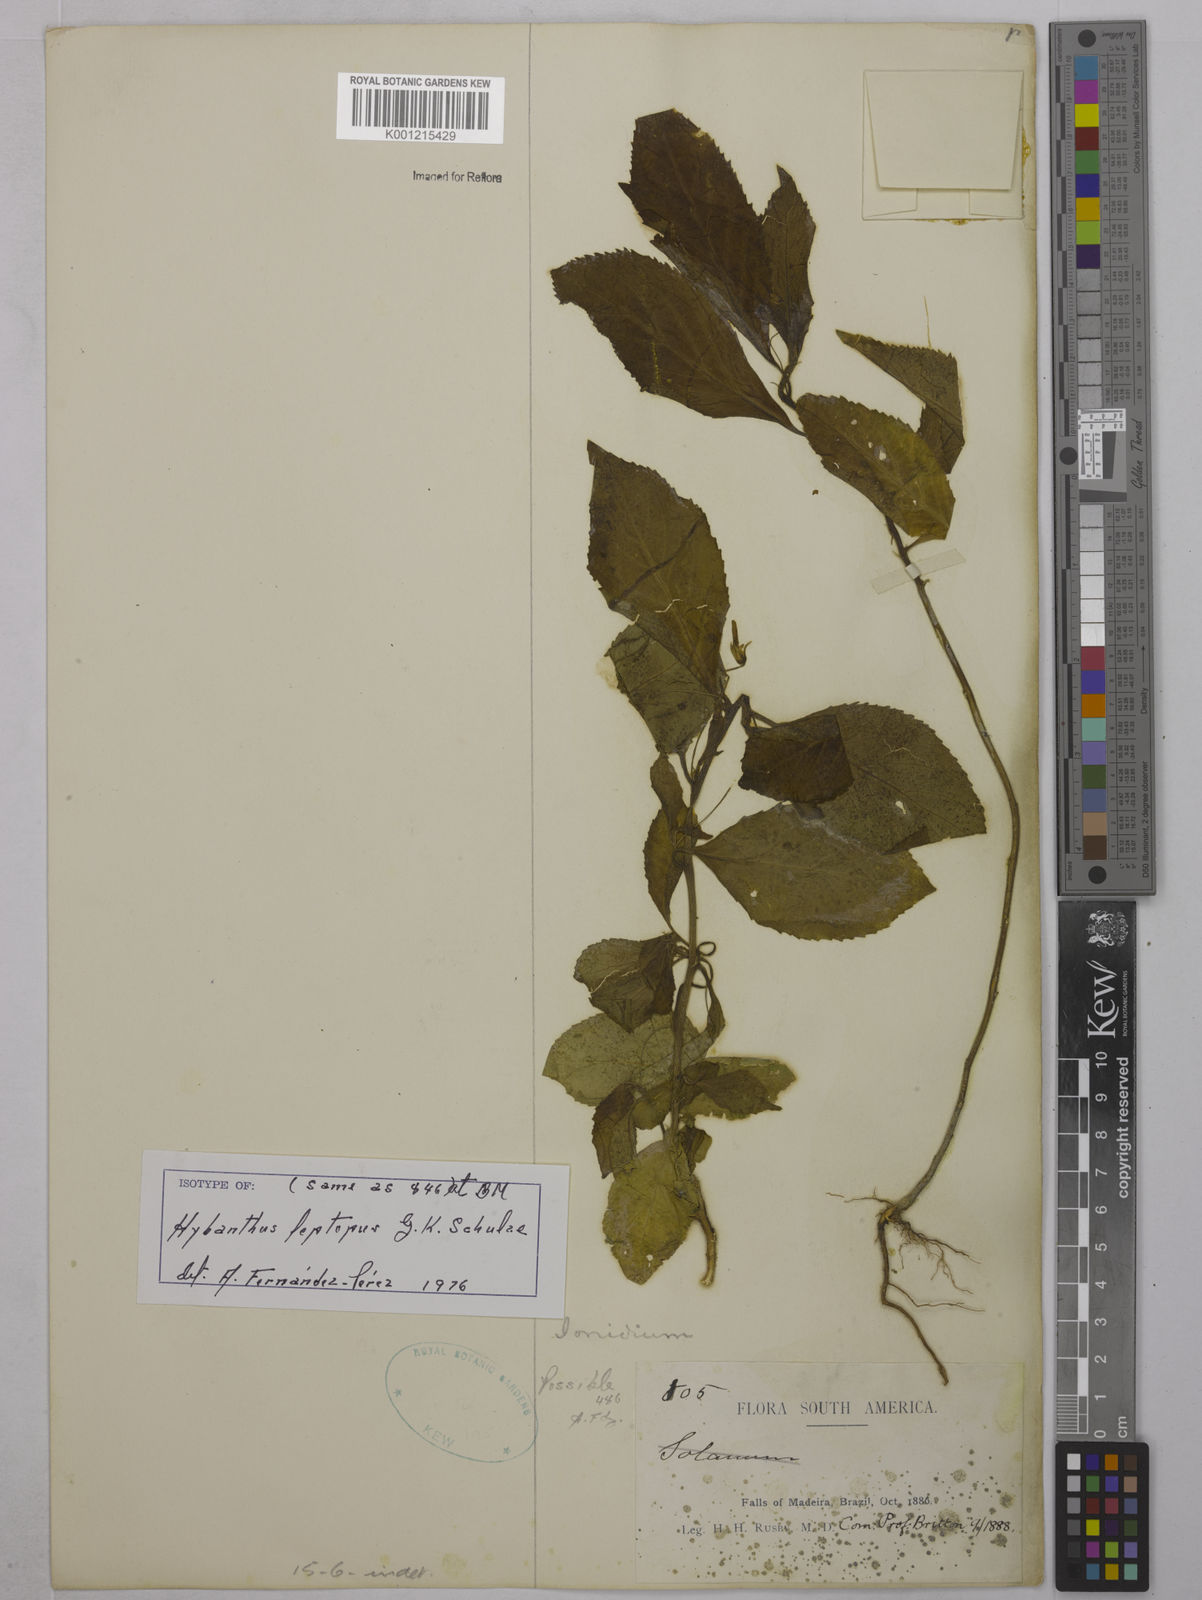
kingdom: Plantae
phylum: Tracheophyta
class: Magnoliopsida
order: Malpighiales
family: Violaceae
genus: Hybanthus
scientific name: Hybanthus leptopus
